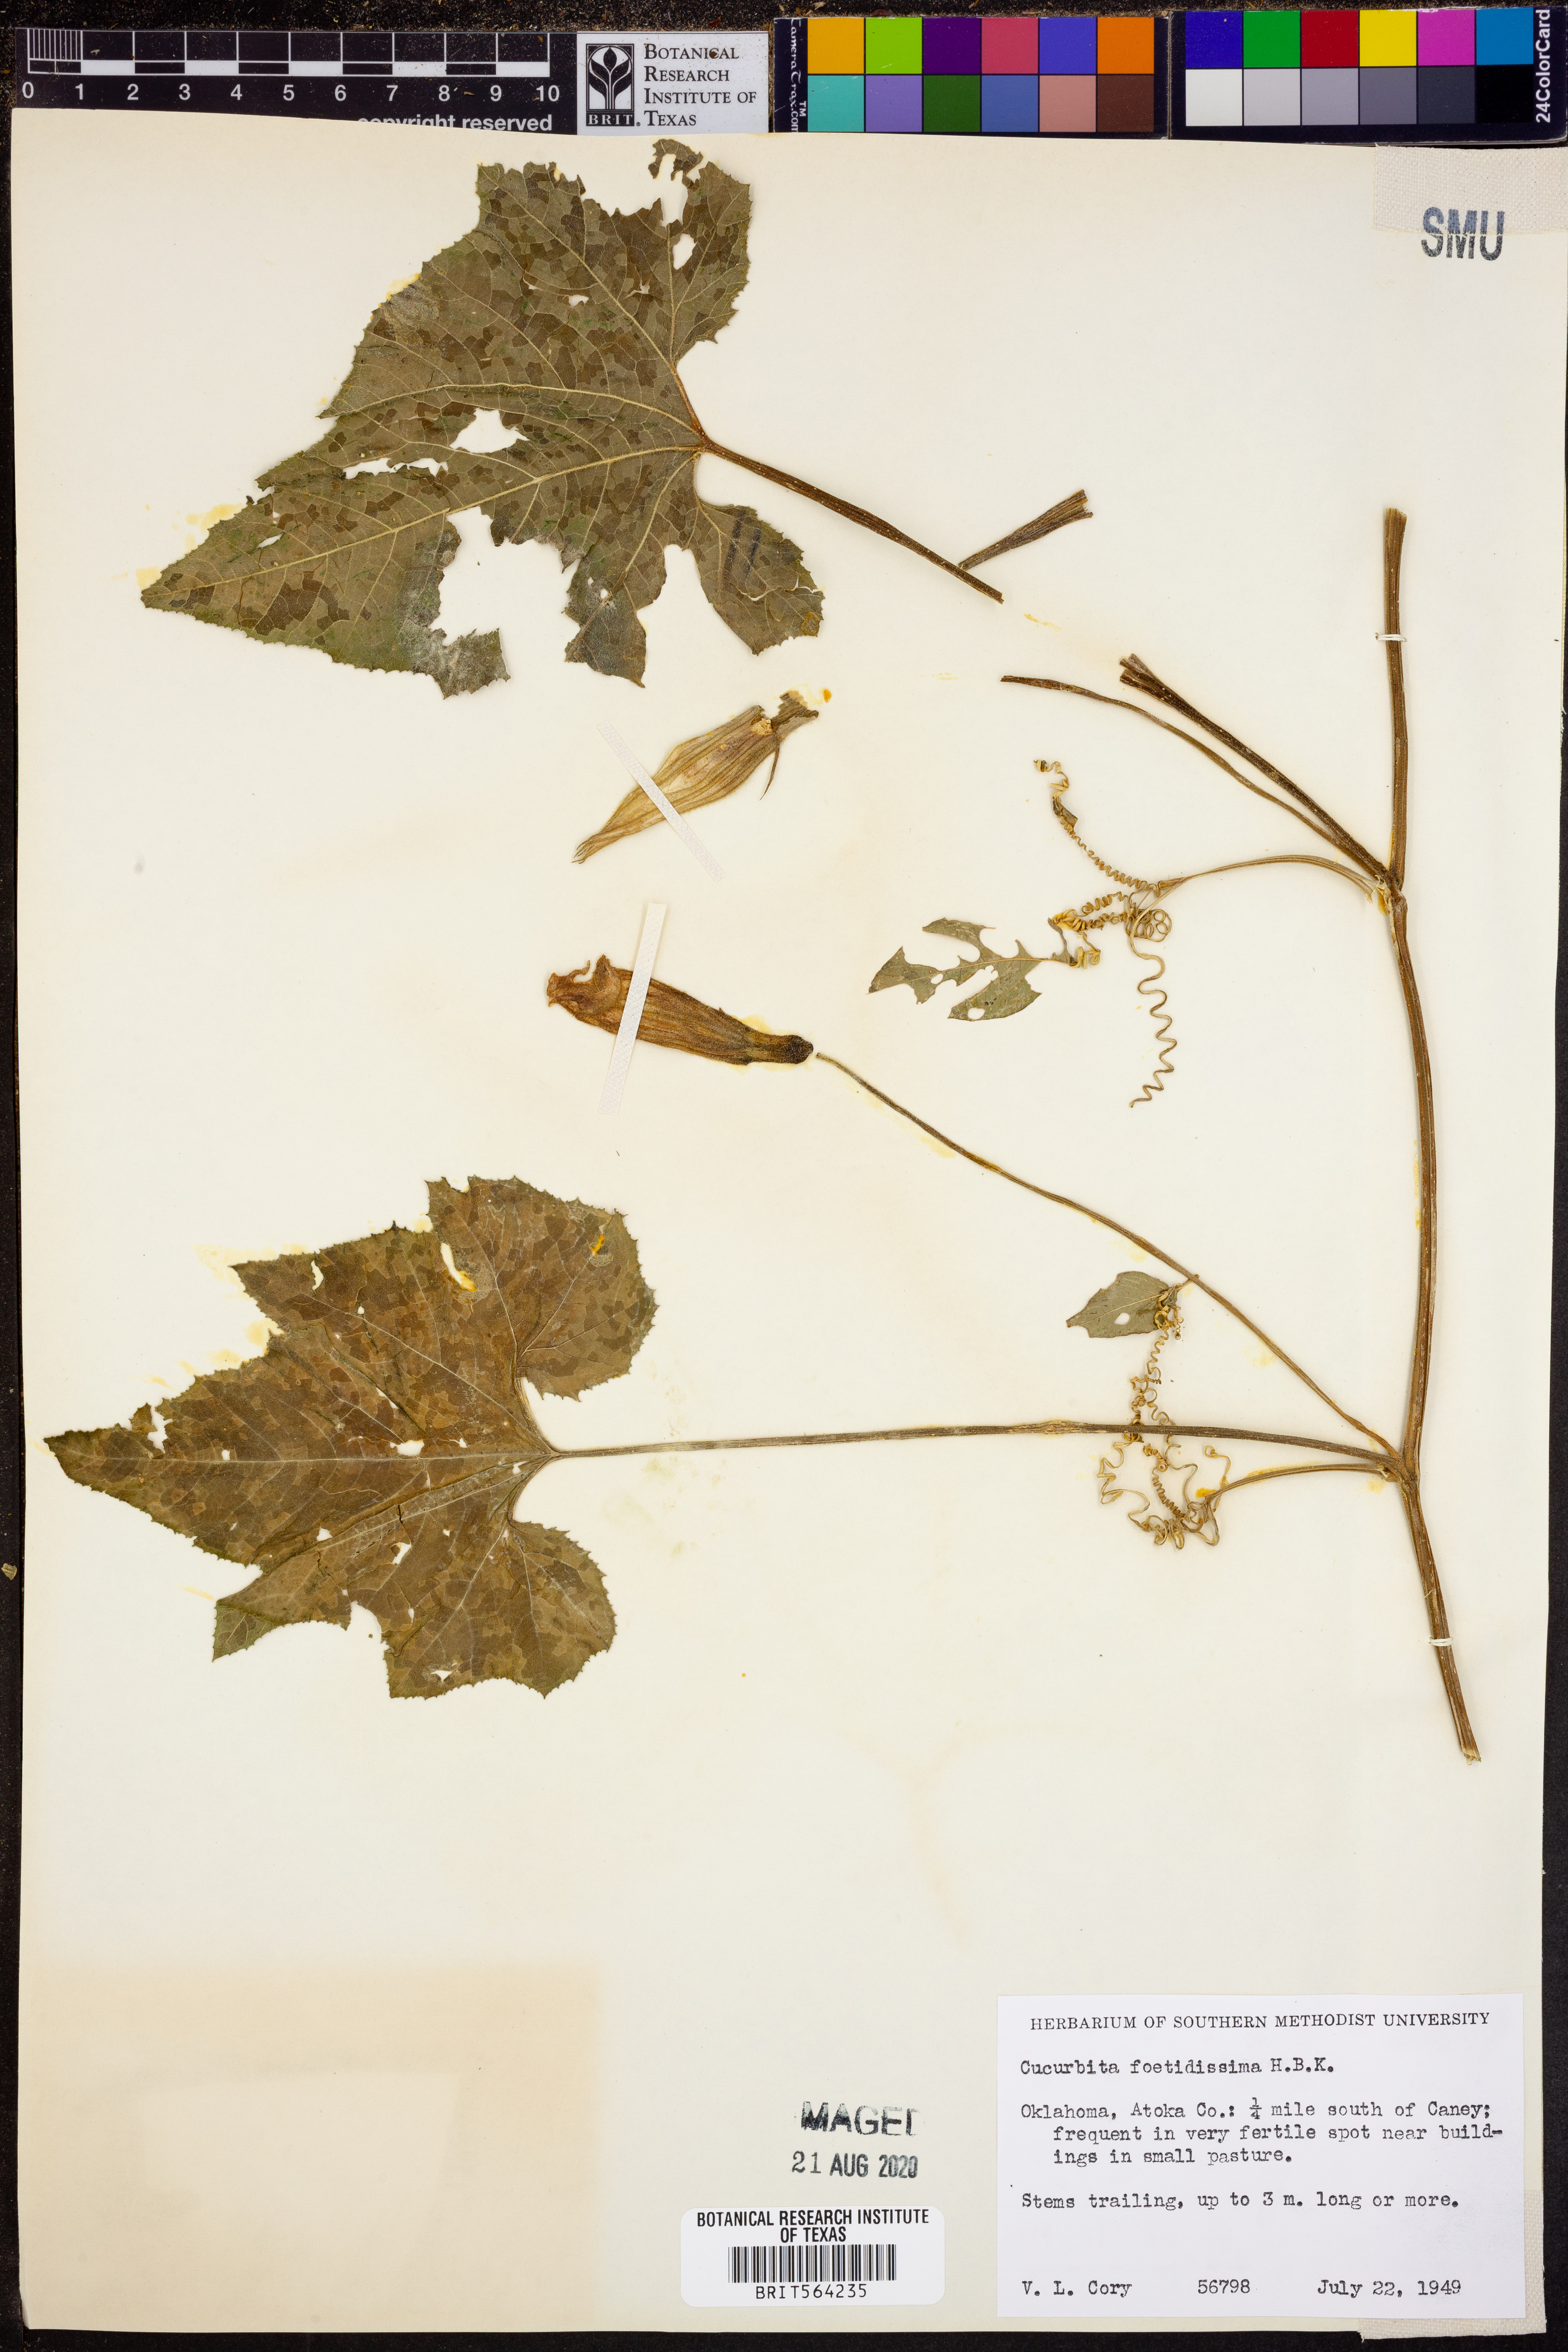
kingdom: Plantae
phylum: Tracheophyta
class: Magnoliopsida
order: Cucurbitales
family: Cucurbitaceae
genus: Cucurbita
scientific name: Cucurbita pepo
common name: Marrow
